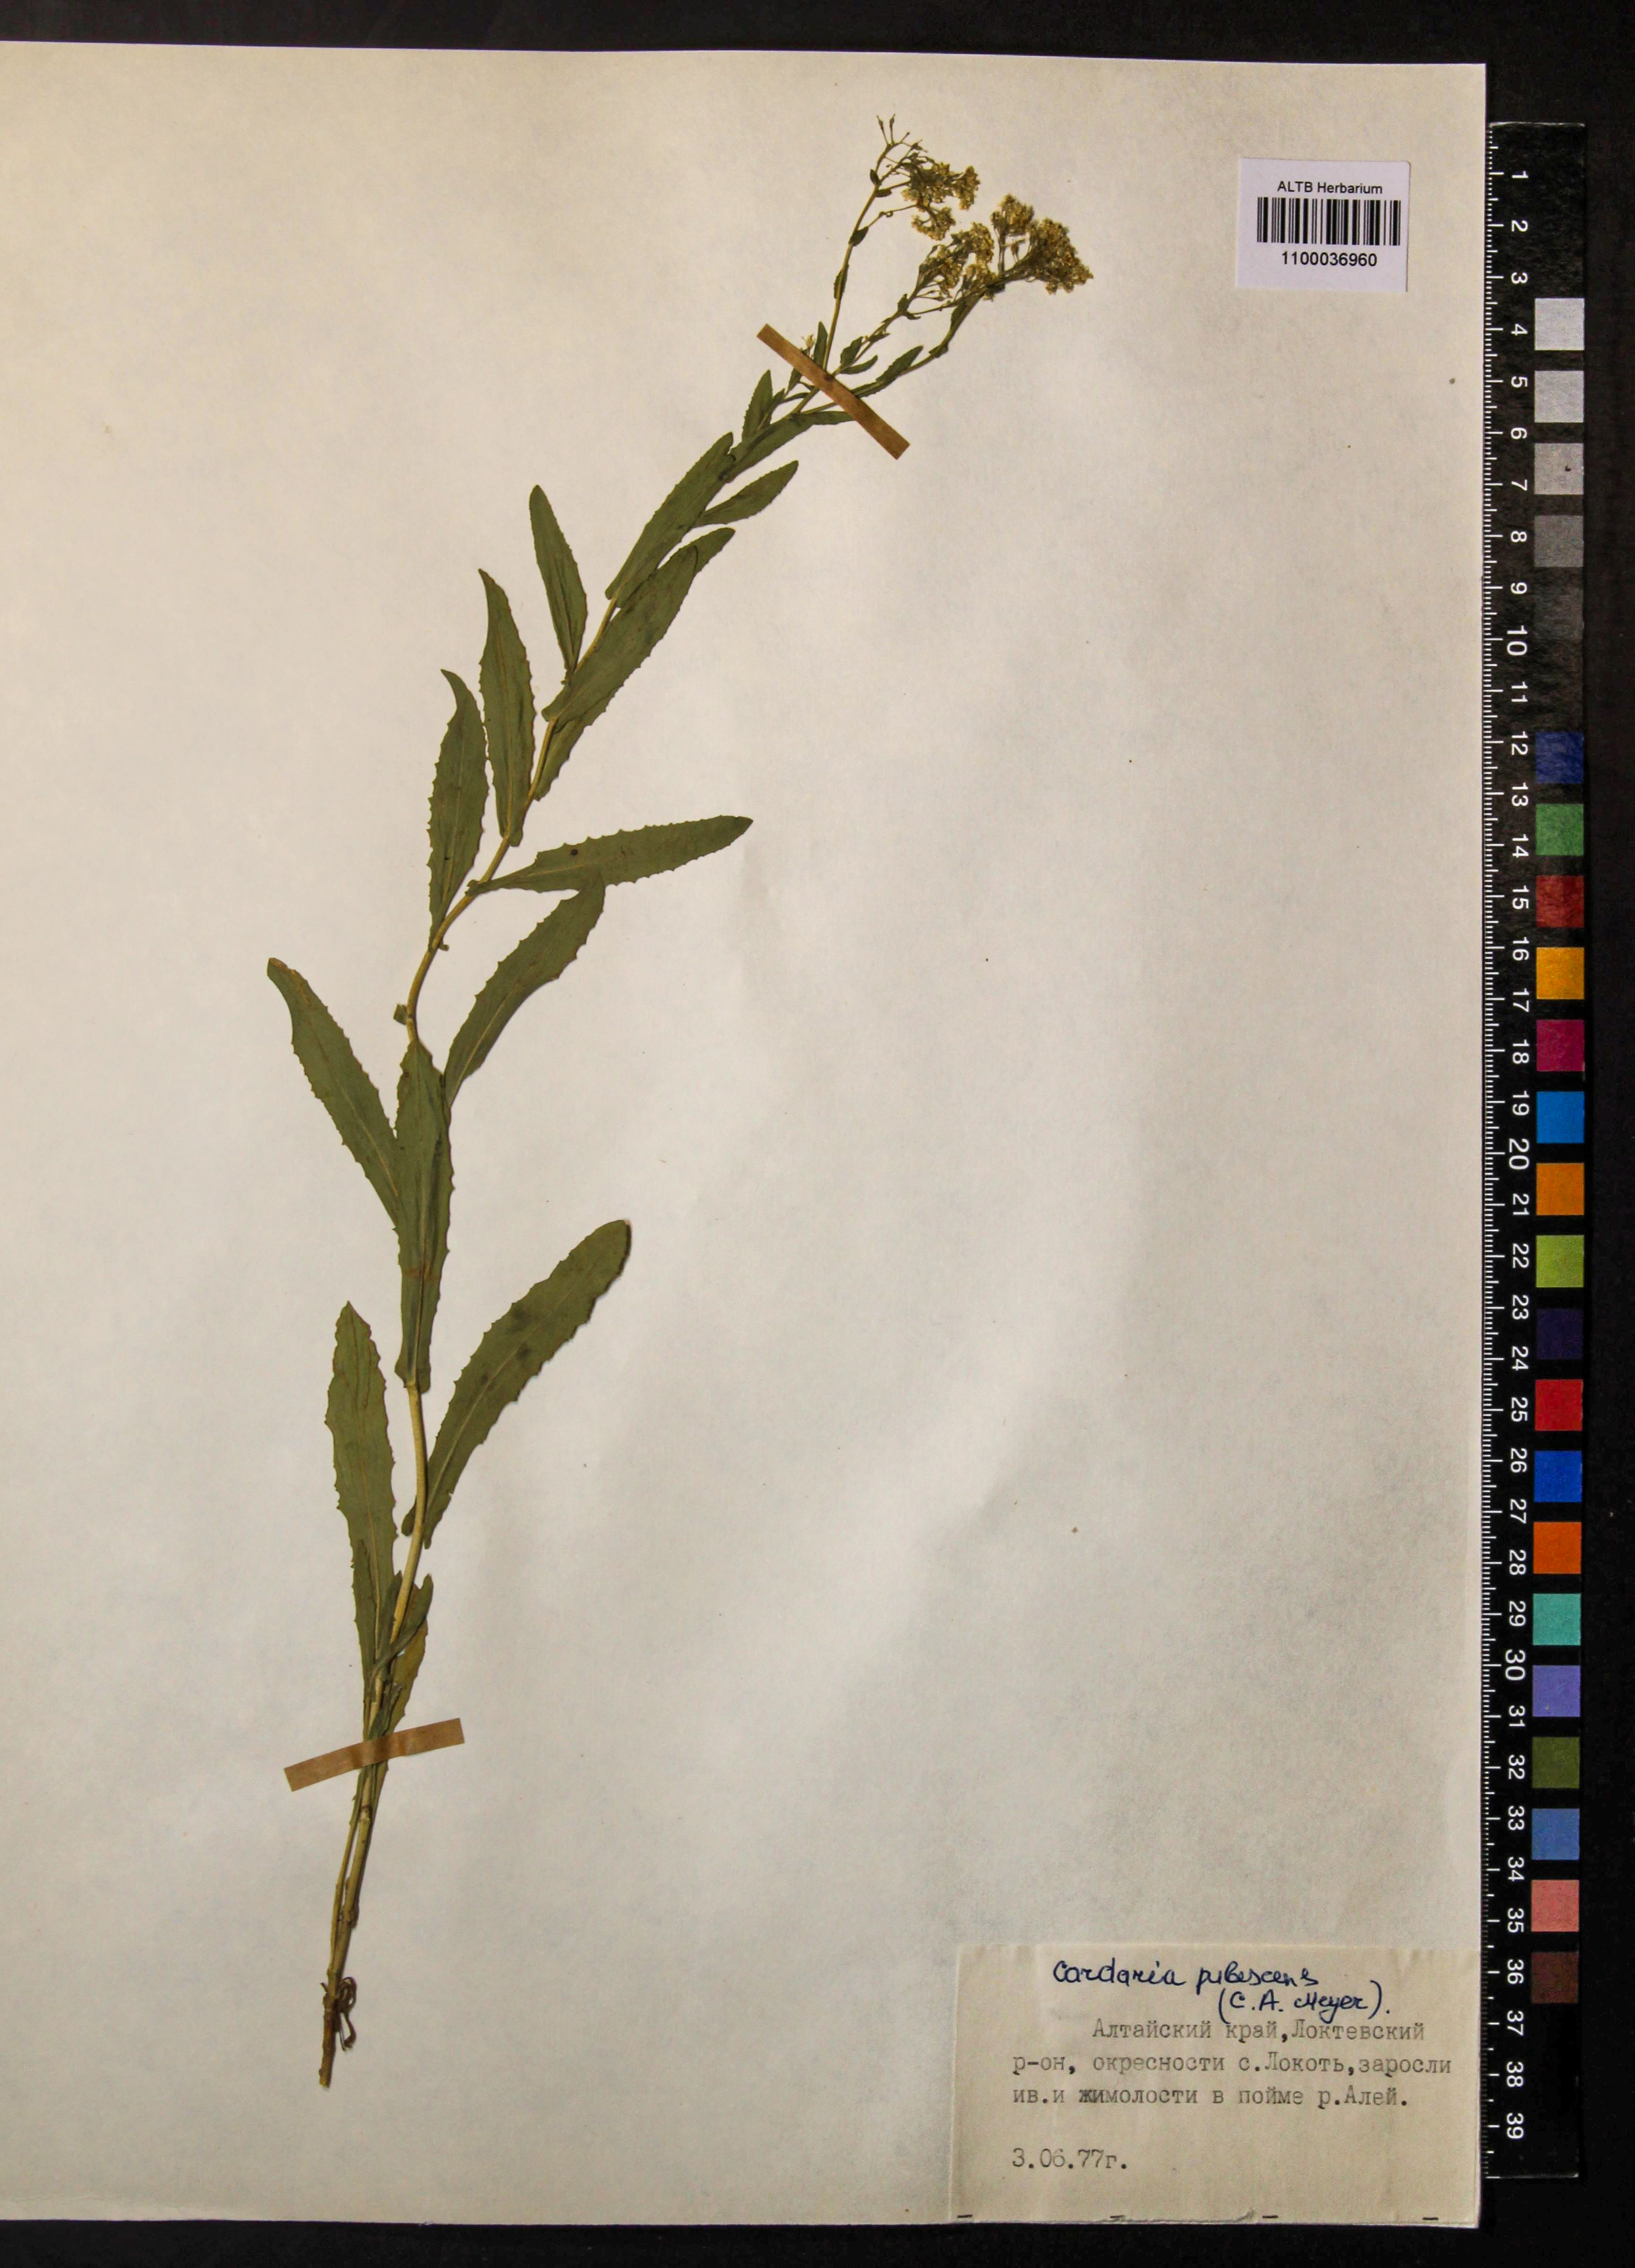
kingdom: Plantae
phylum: Tracheophyta
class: Magnoliopsida
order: Brassicales
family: Brassicaceae
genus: Lepidium
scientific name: Lepidium appelianum
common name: Hairy whitetop
